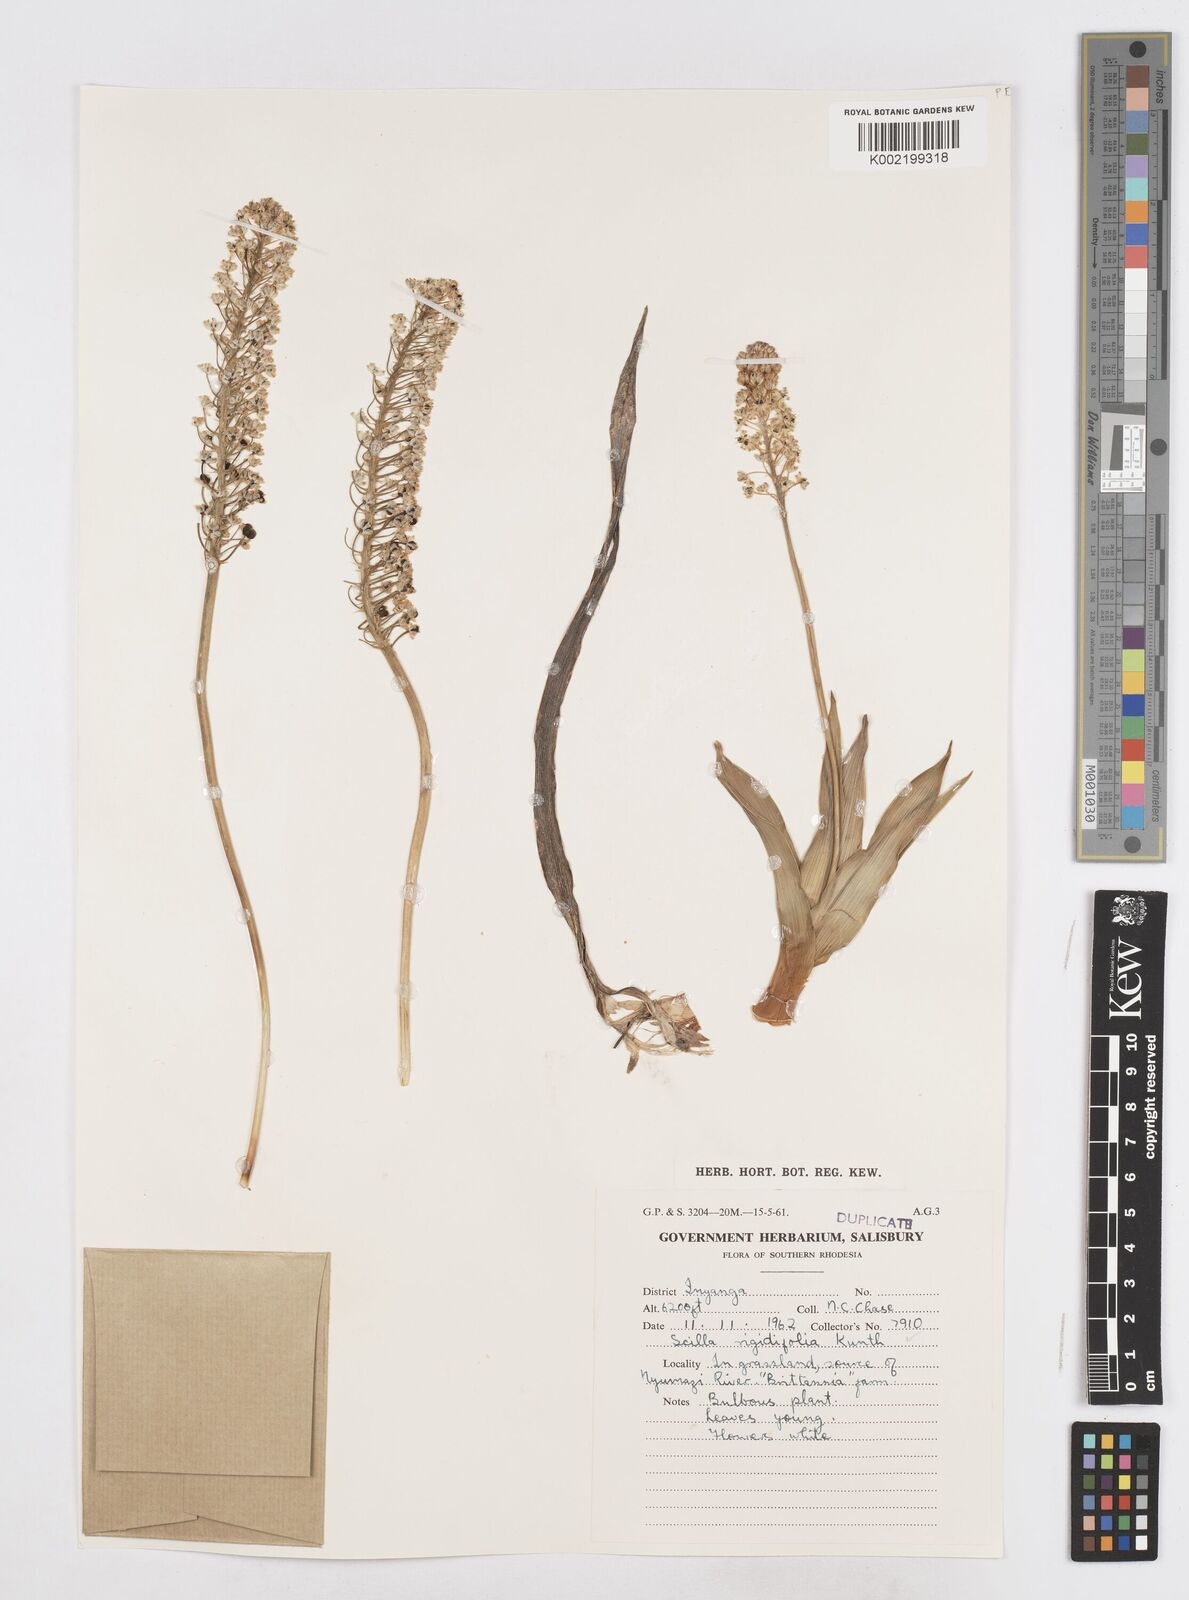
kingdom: Plantae
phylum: Tracheophyta
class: Liliopsida
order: Asparagales
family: Asparagaceae
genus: Schizocarphus
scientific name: Schizocarphus nervosus
